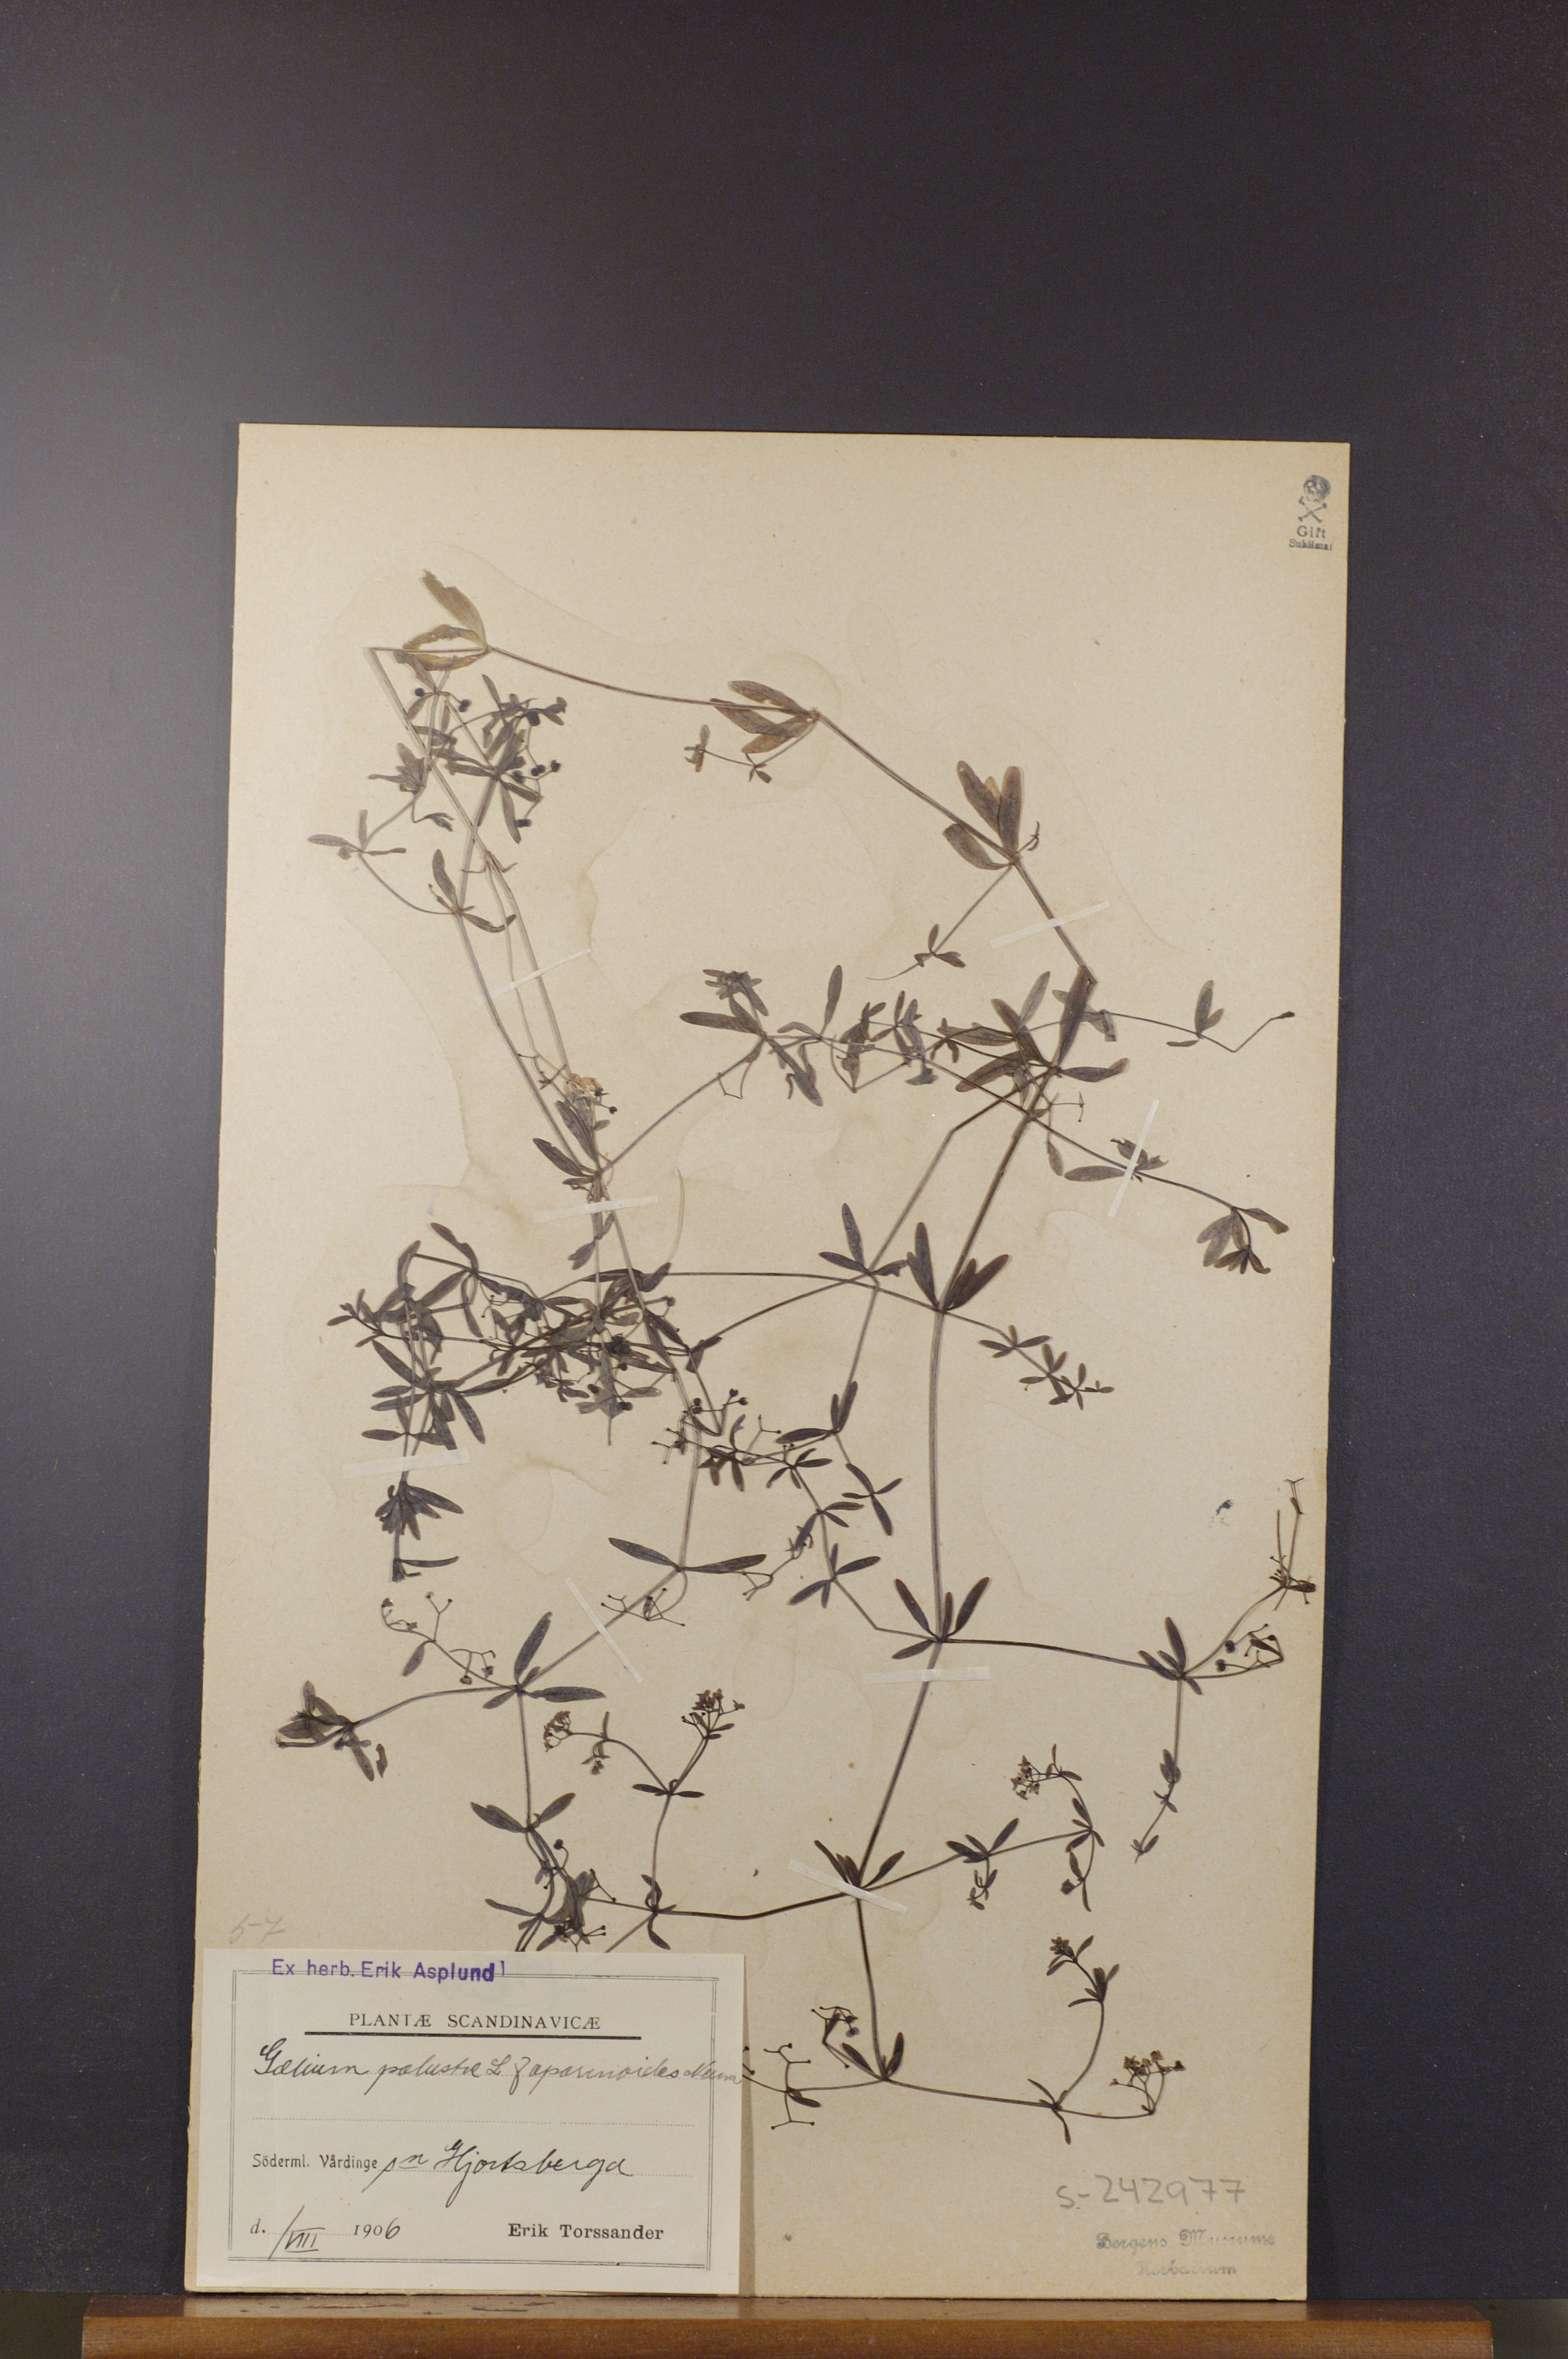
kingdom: Plantae
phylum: Tracheophyta
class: Magnoliopsida
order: Gentianales
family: Rubiaceae
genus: Galium
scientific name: Galium palustre
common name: Common marsh-bedstraw
